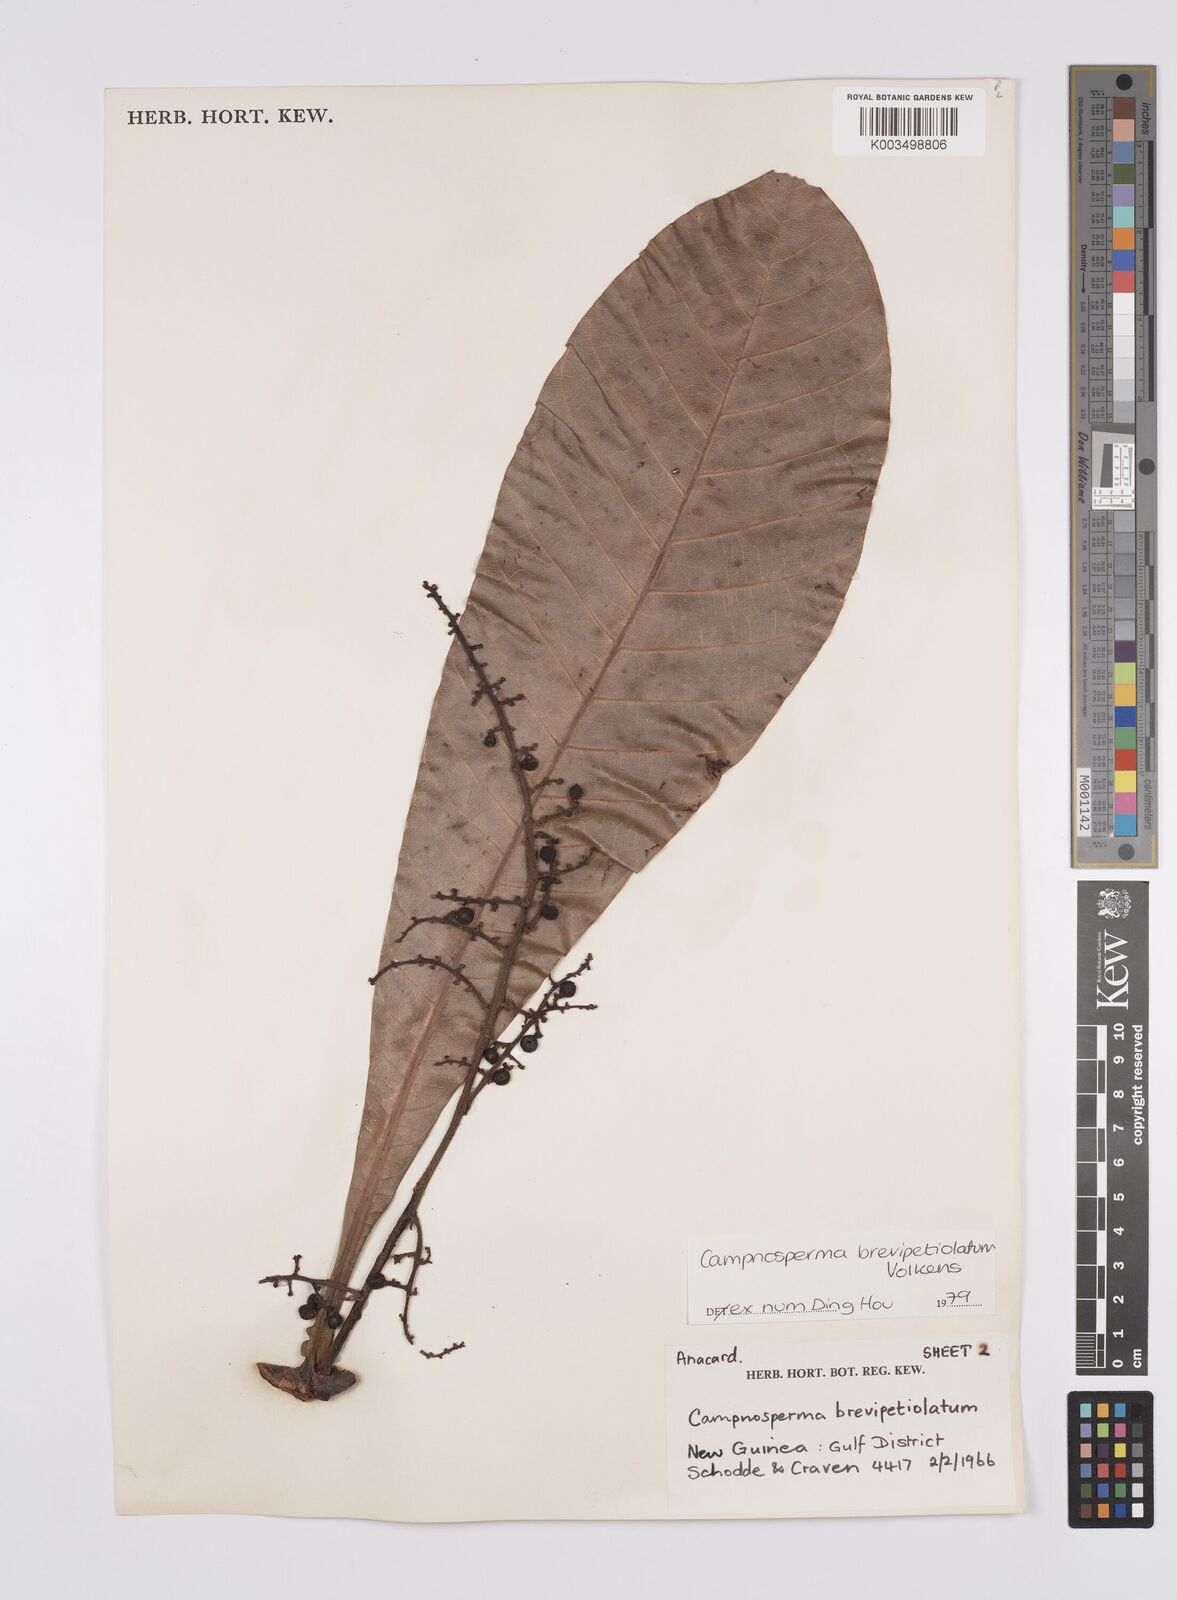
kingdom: Plantae
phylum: Tracheophyta
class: Magnoliopsida
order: Sapindales
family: Anacardiaceae
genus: Campnosperma
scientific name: Campnosperma brevipetiolatum
